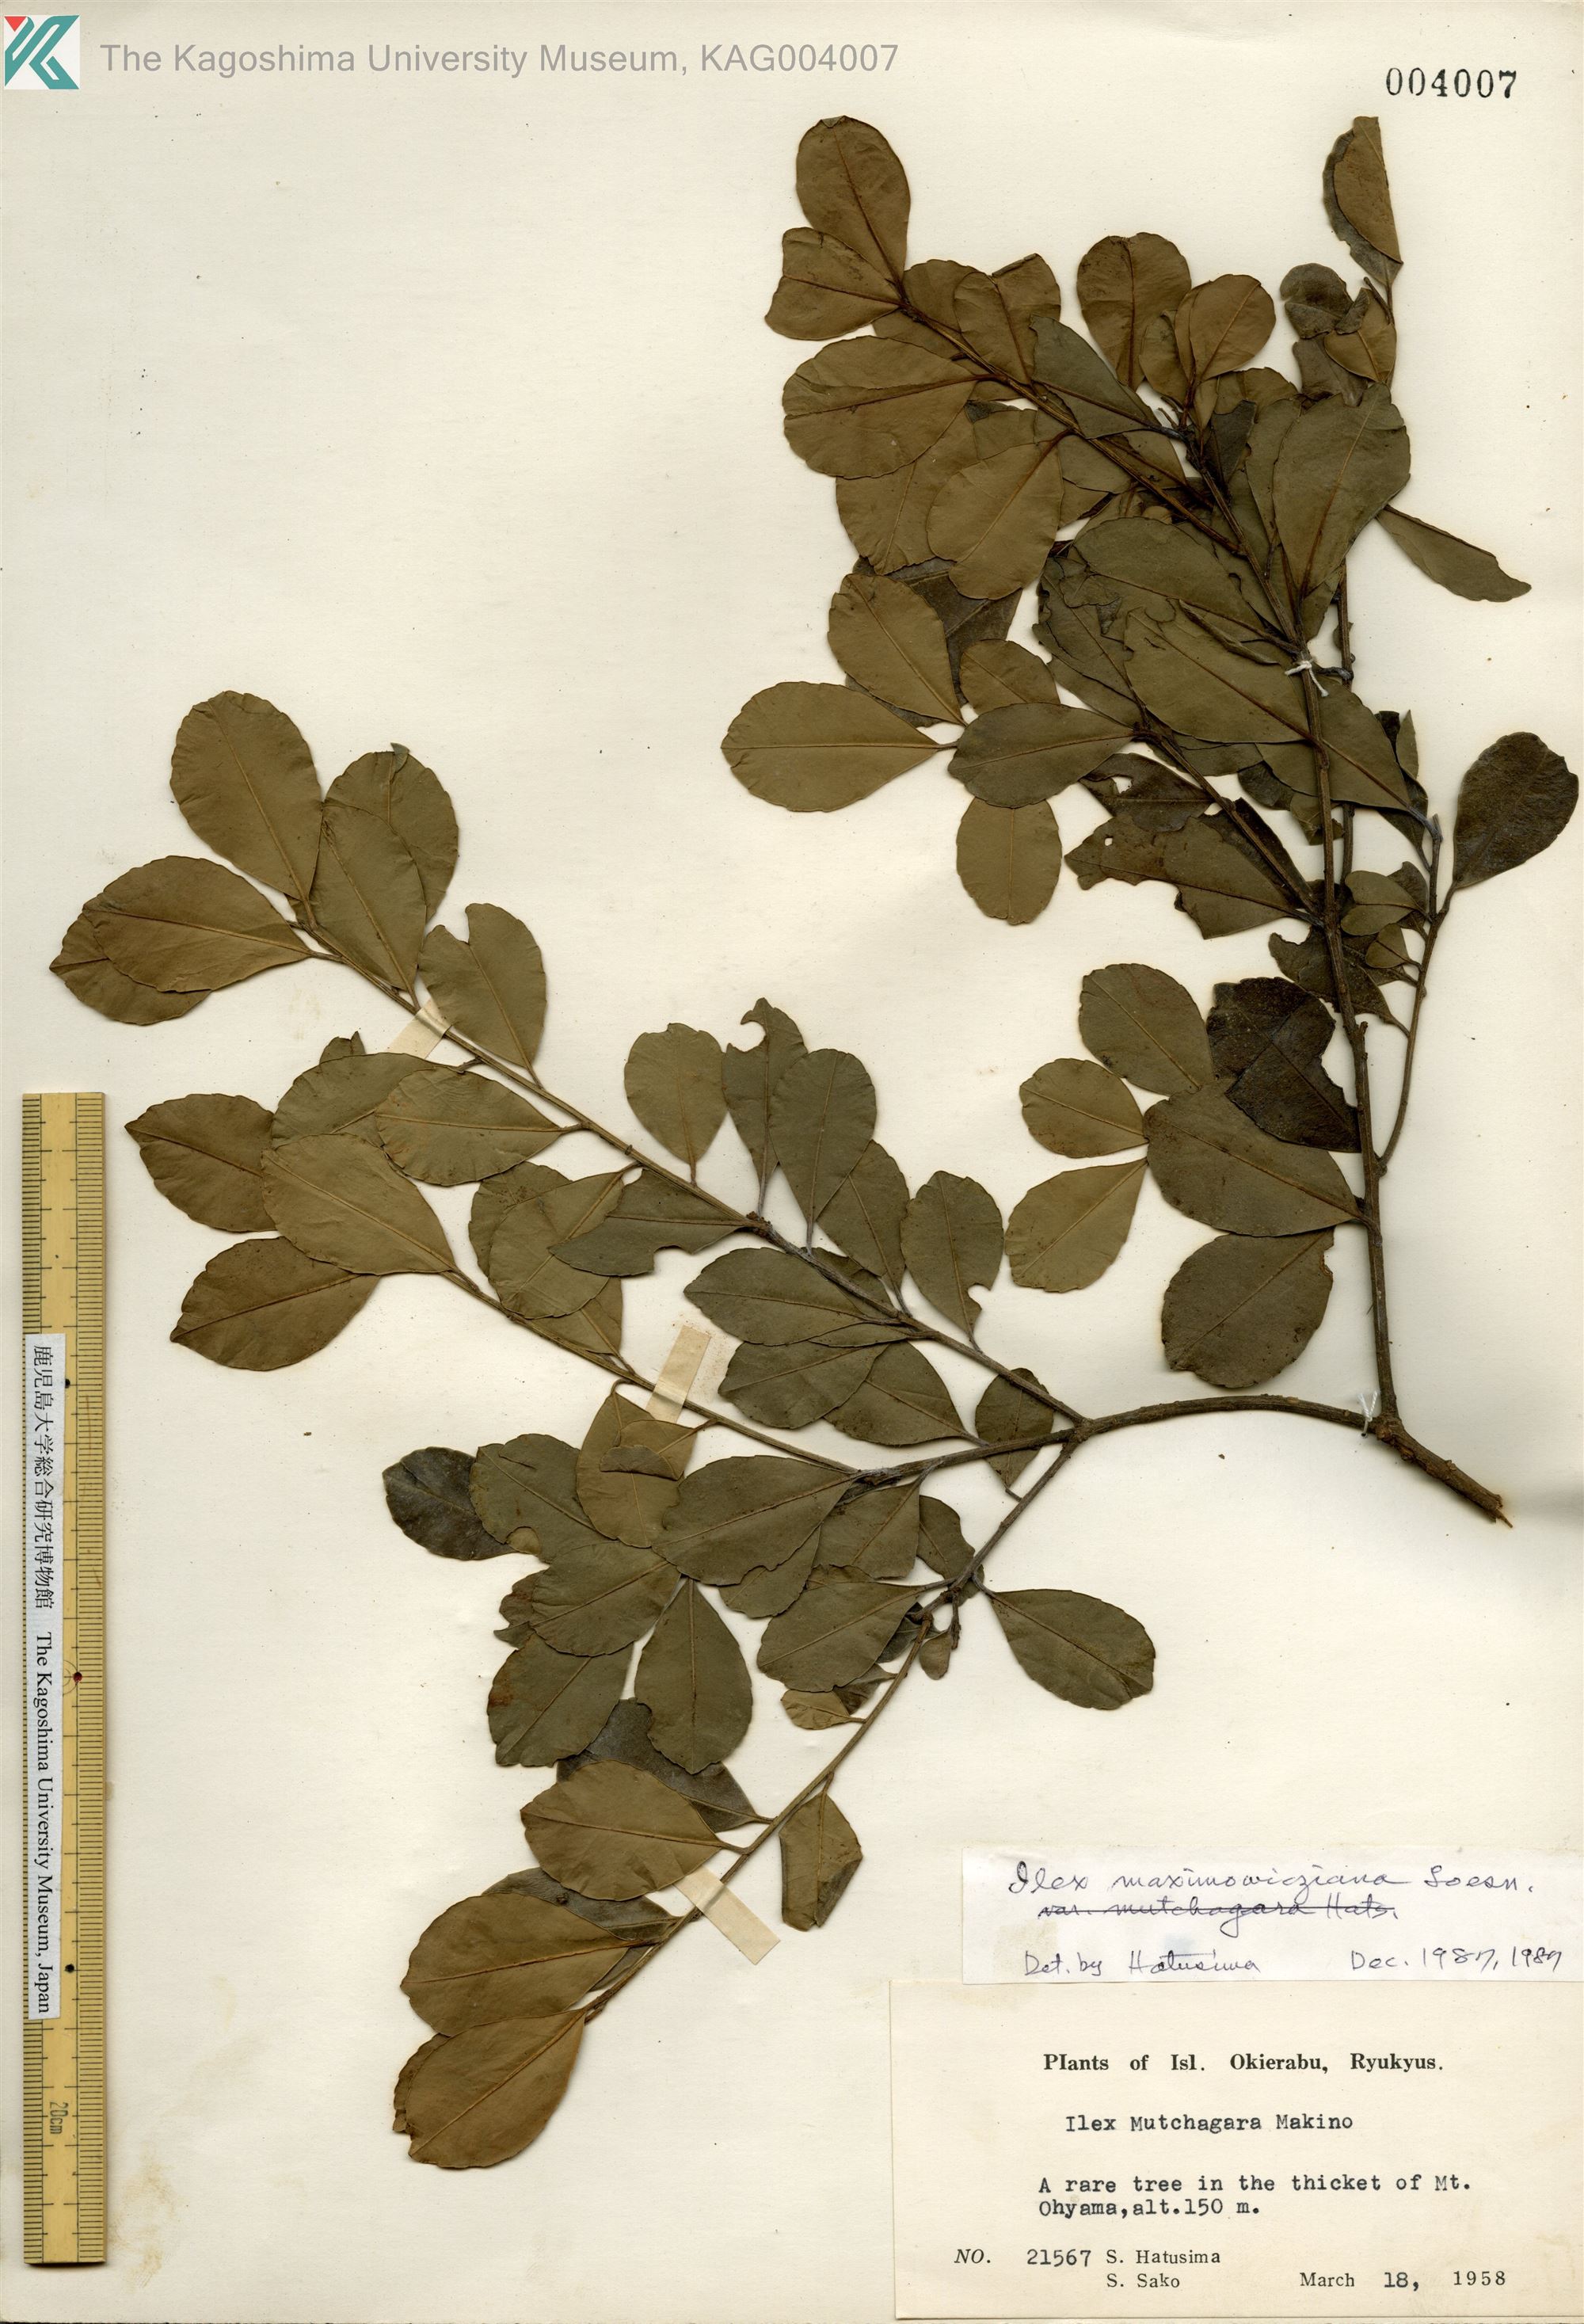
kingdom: Plantae
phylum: Tracheophyta
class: Magnoliopsida
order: Aquifoliales
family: Aquifoliaceae
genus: Ilex
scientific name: Ilex maximowicziana
